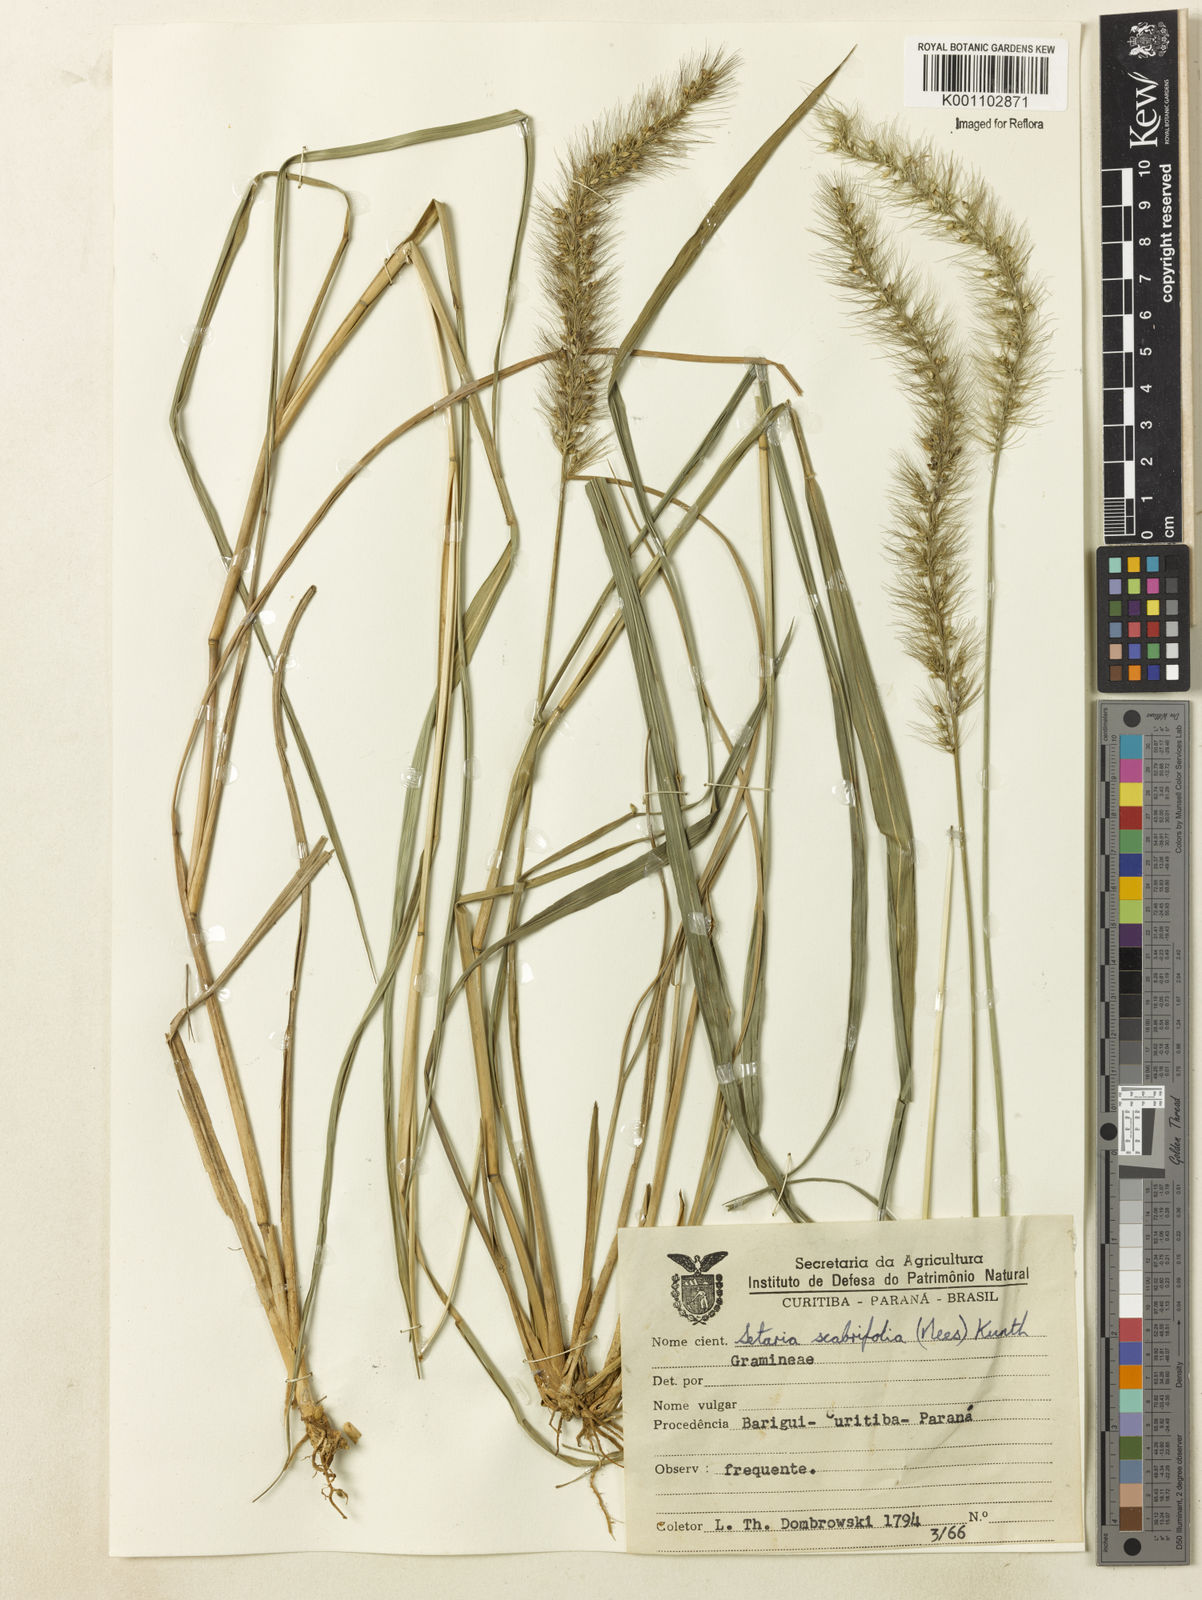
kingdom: Plantae
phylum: Tracheophyta
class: Liliopsida
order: Poales
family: Poaceae
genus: Setaria
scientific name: Setaria scabrifolia
